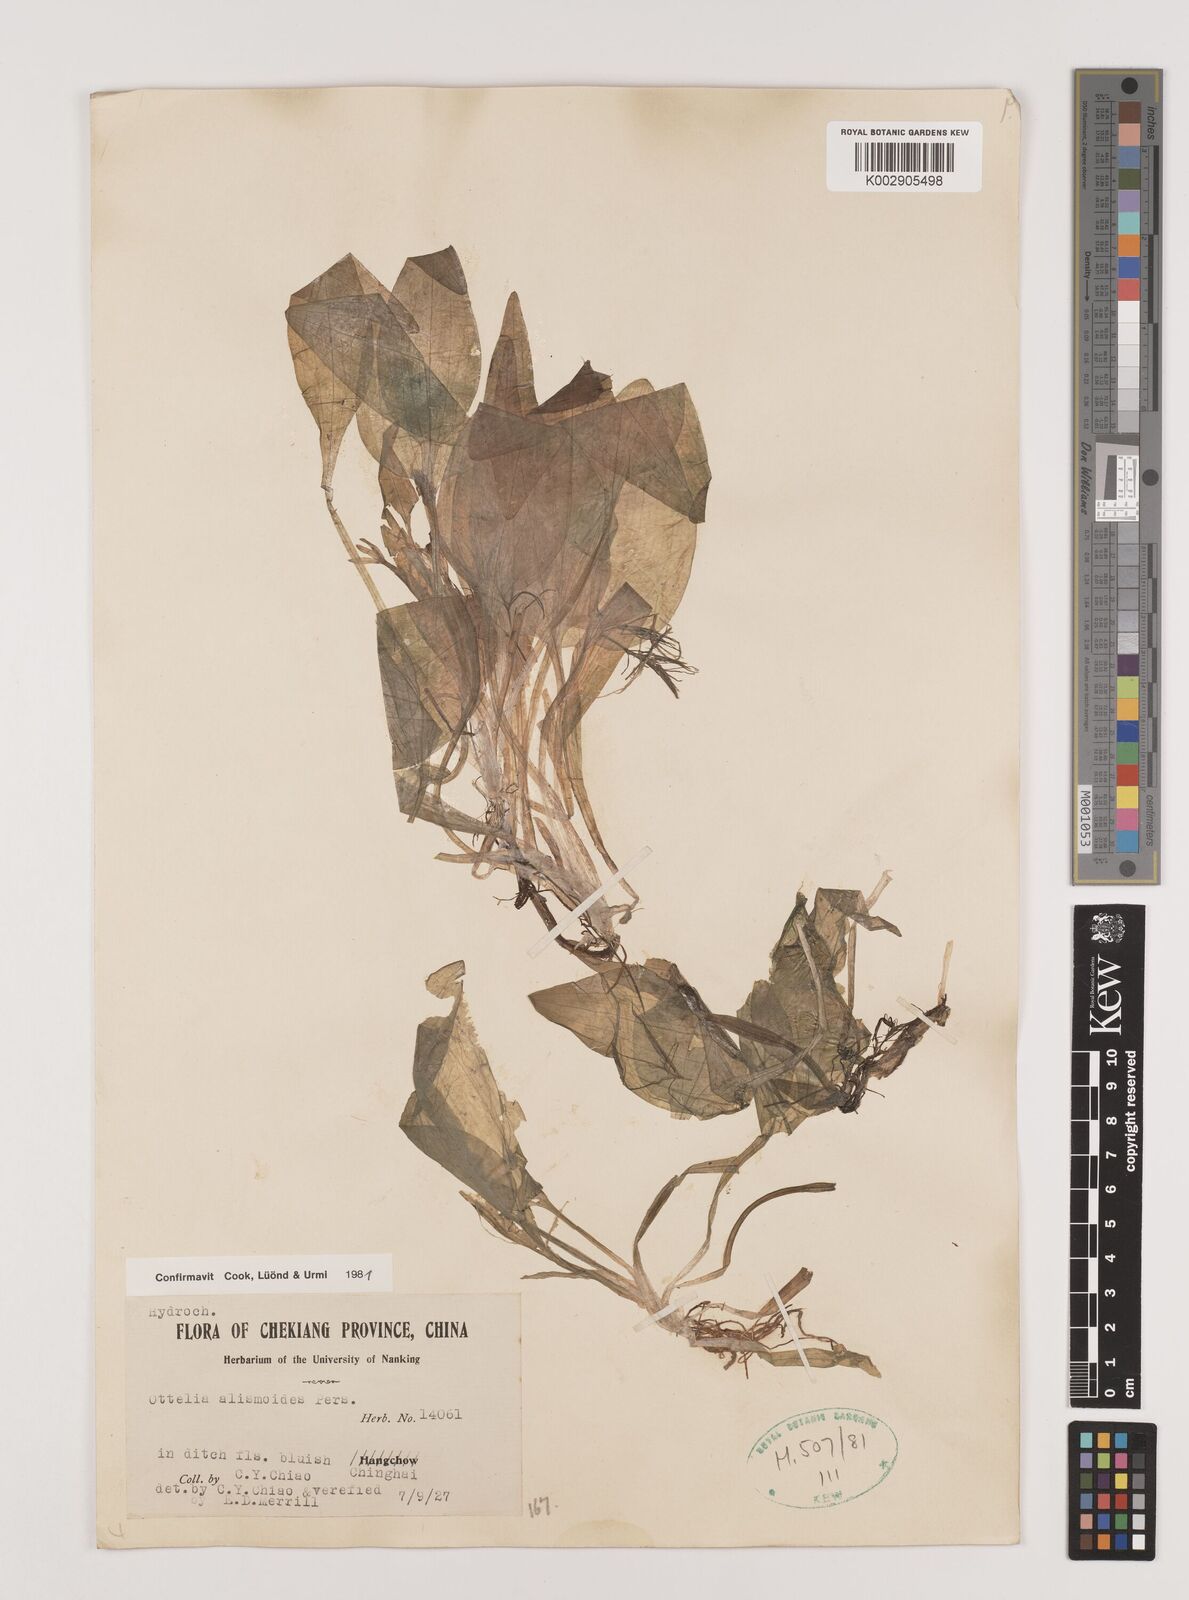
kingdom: Plantae
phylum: Tracheophyta
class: Liliopsida
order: Alismatales
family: Hydrocharitaceae
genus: Ottelia
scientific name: Ottelia alismoides
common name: Duck-lettuce
